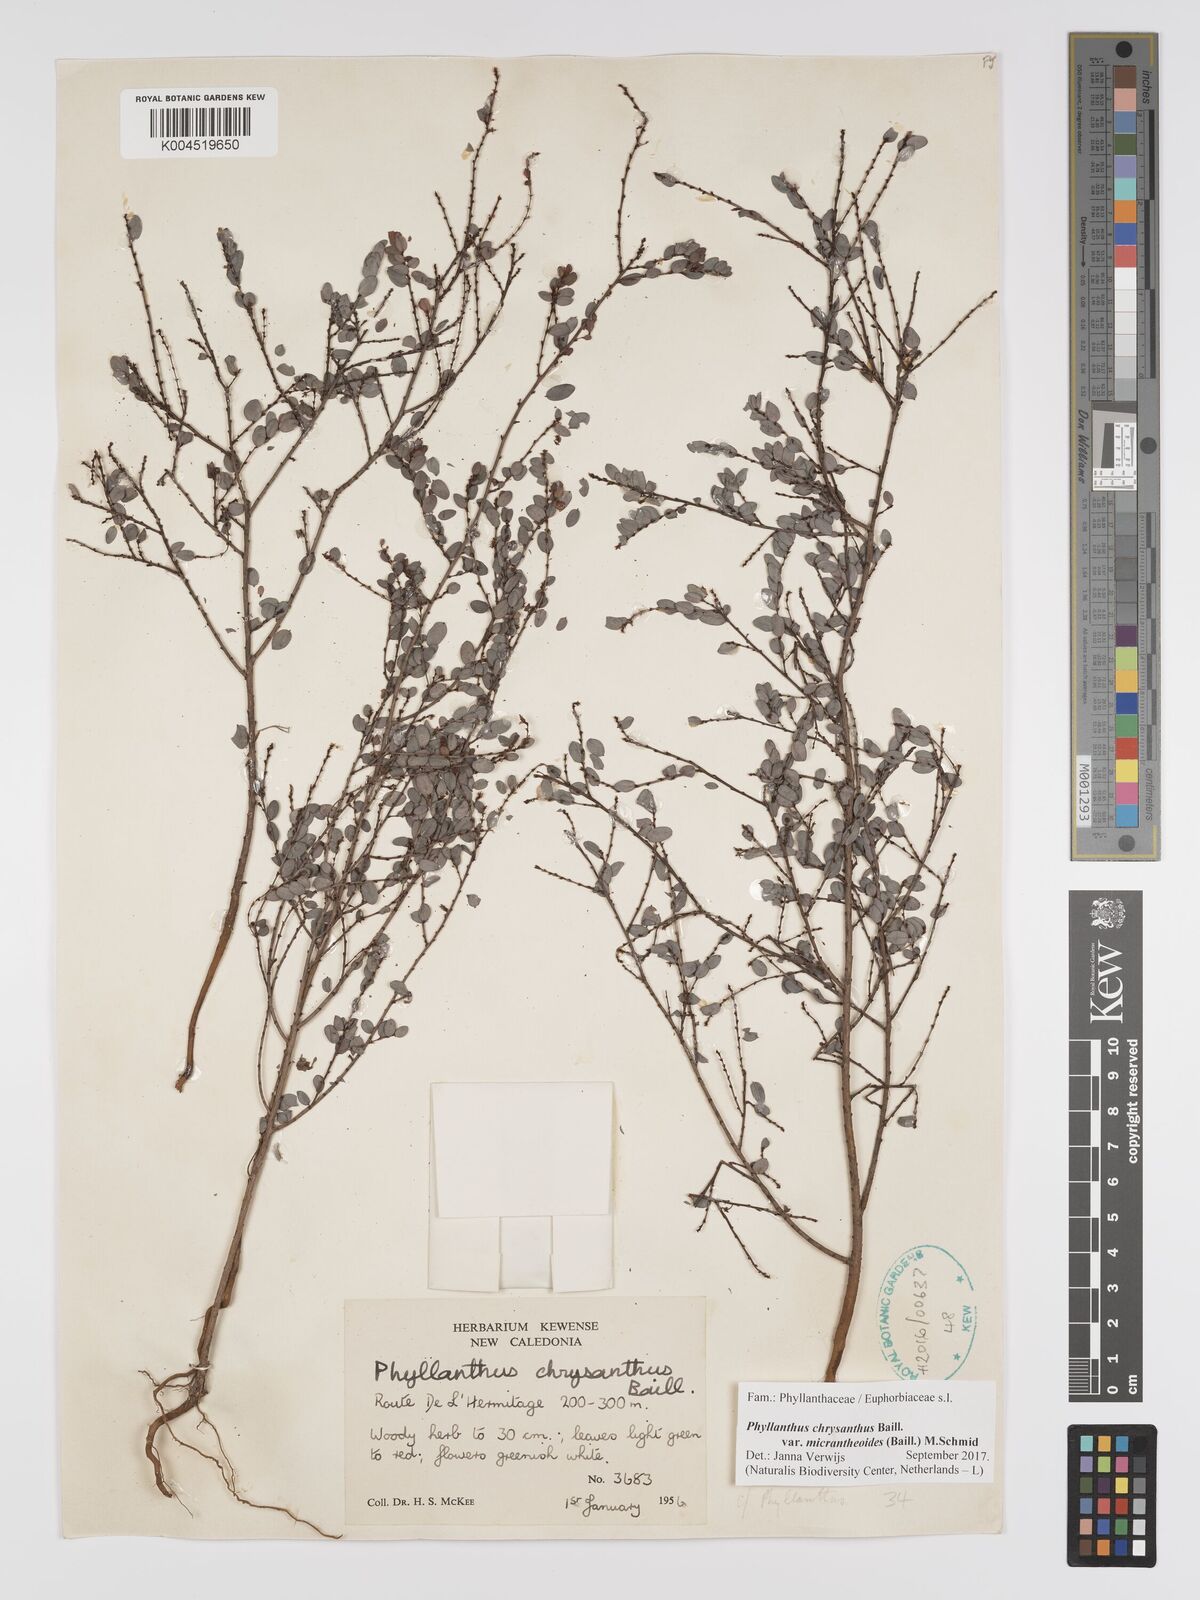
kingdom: Plantae
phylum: Tracheophyta
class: Magnoliopsida
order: Malpighiales
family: Phyllanthaceae
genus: Phyllanthus
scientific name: Phyllanthus chrysanthus
